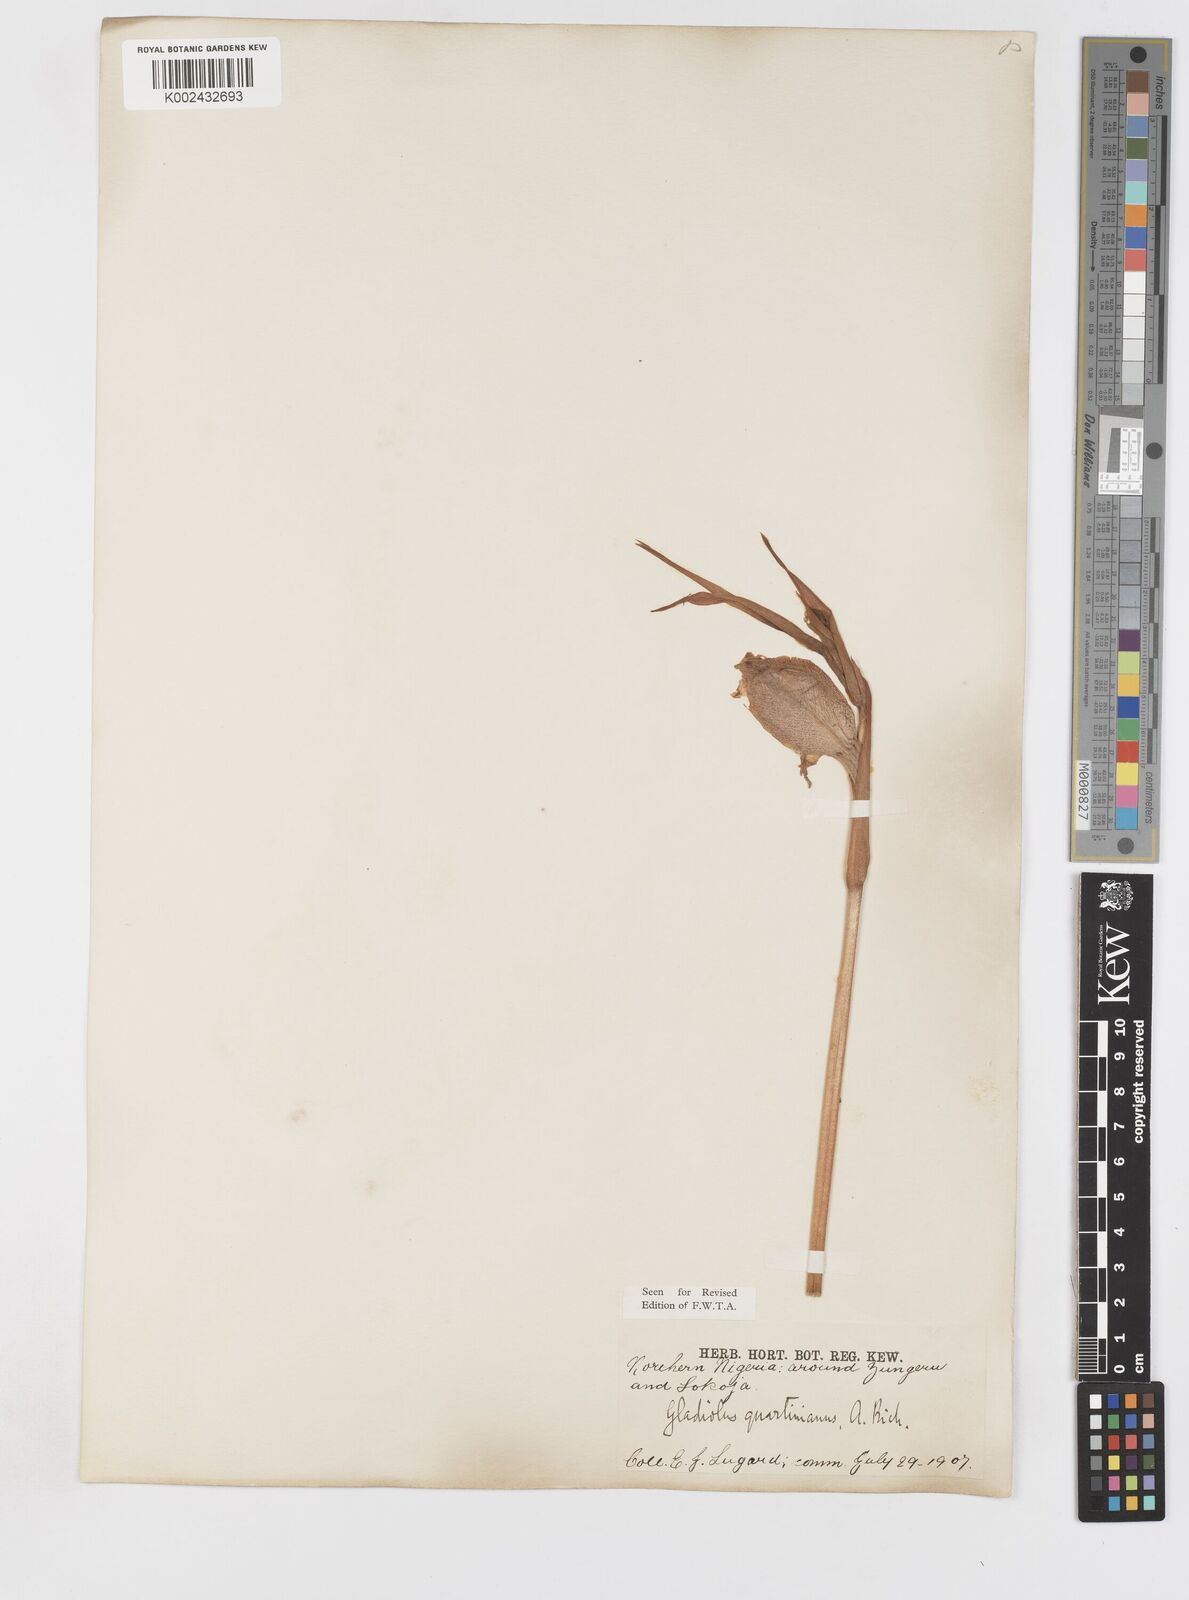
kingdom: Plantae
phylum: Tracheophyta
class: Liliopsida
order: Asparagales
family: Iridaceae
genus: Gladiolus
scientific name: Gladiolus dalenii
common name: Cornflag
